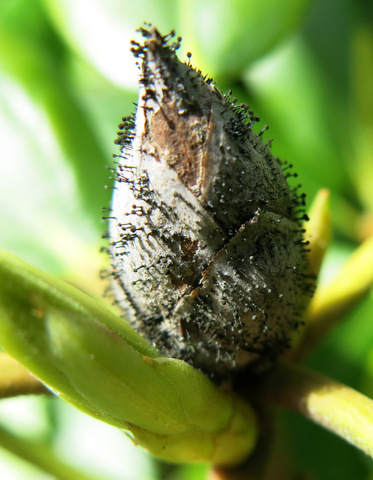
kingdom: Fungi
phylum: Ascomycota
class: Dothideomycetes
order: Pleosporales
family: Melanommataceae
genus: Seifertia
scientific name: Seifertia azaleae
